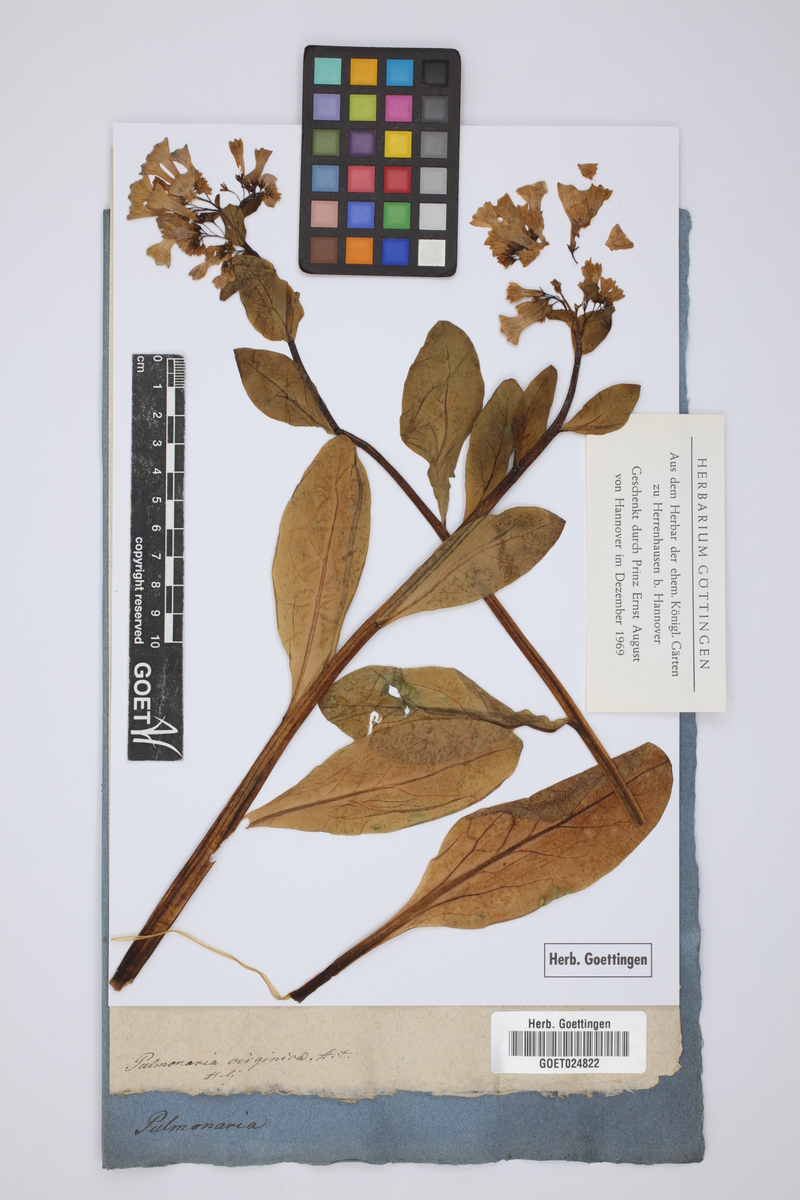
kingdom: Plantae
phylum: Tracheophyta
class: Magnoliopsida
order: Boraginales
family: Boraginaceae
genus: Mertensia
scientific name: Mertensia virginica
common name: Virginia bluebells
